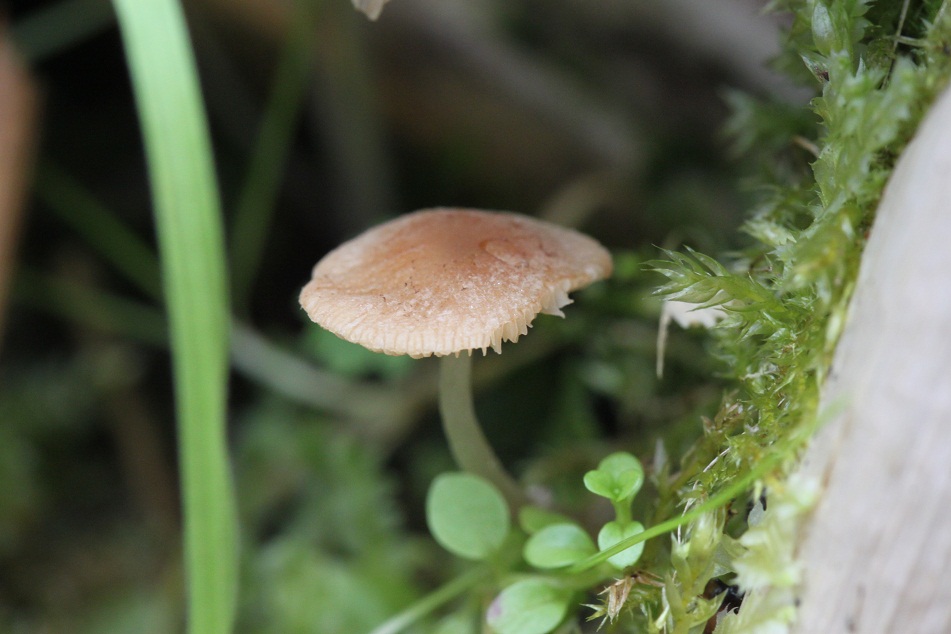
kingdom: Fungi
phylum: Basidiomycota
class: Agaricomycetes
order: Agaricales
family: Psathyrellaceae
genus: Candolleomyces
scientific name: Candolleomyces typhae
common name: dunhammer-mørkhat
